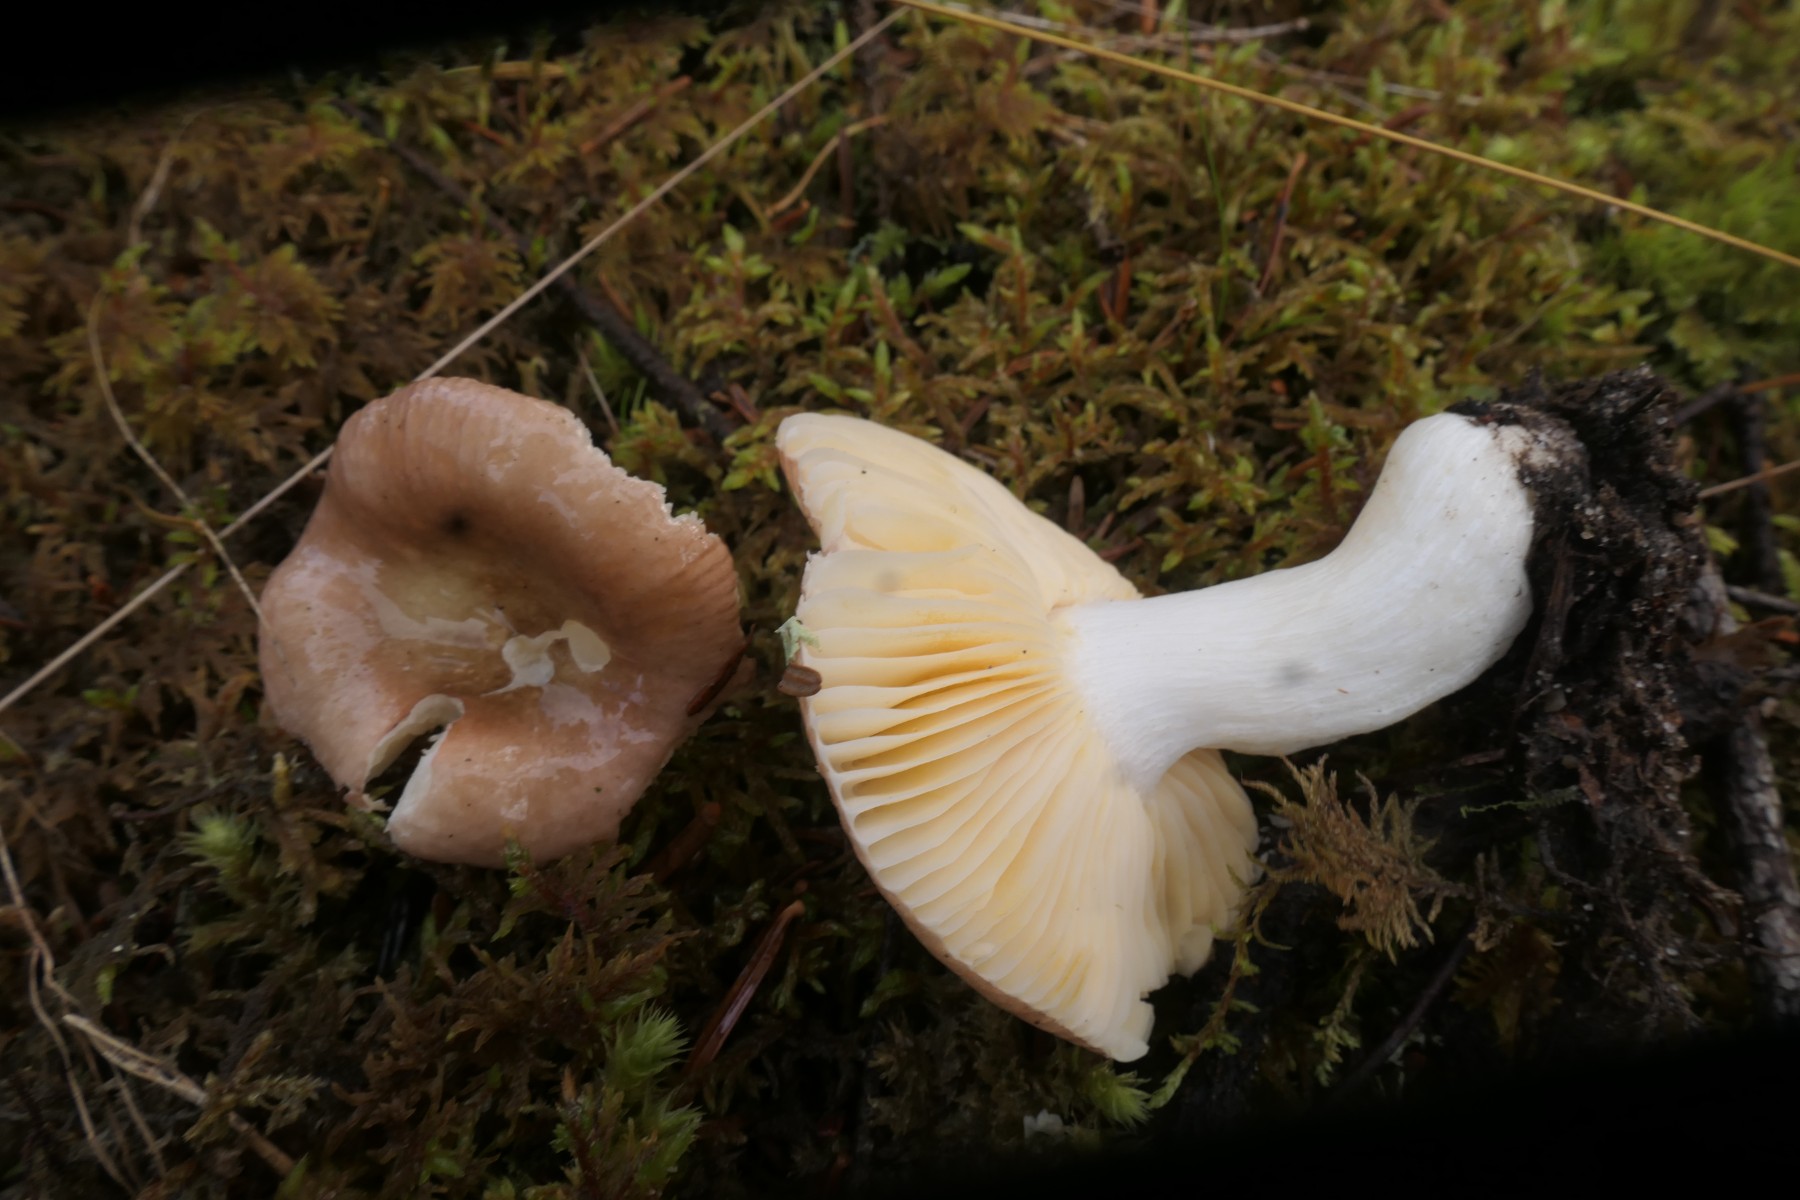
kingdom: Fungi
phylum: Basidiomycota
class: Agaricomycetes
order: Russulales
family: Russulaceae
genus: Russula
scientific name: Russula nauseosa
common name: spinkel skørhat
